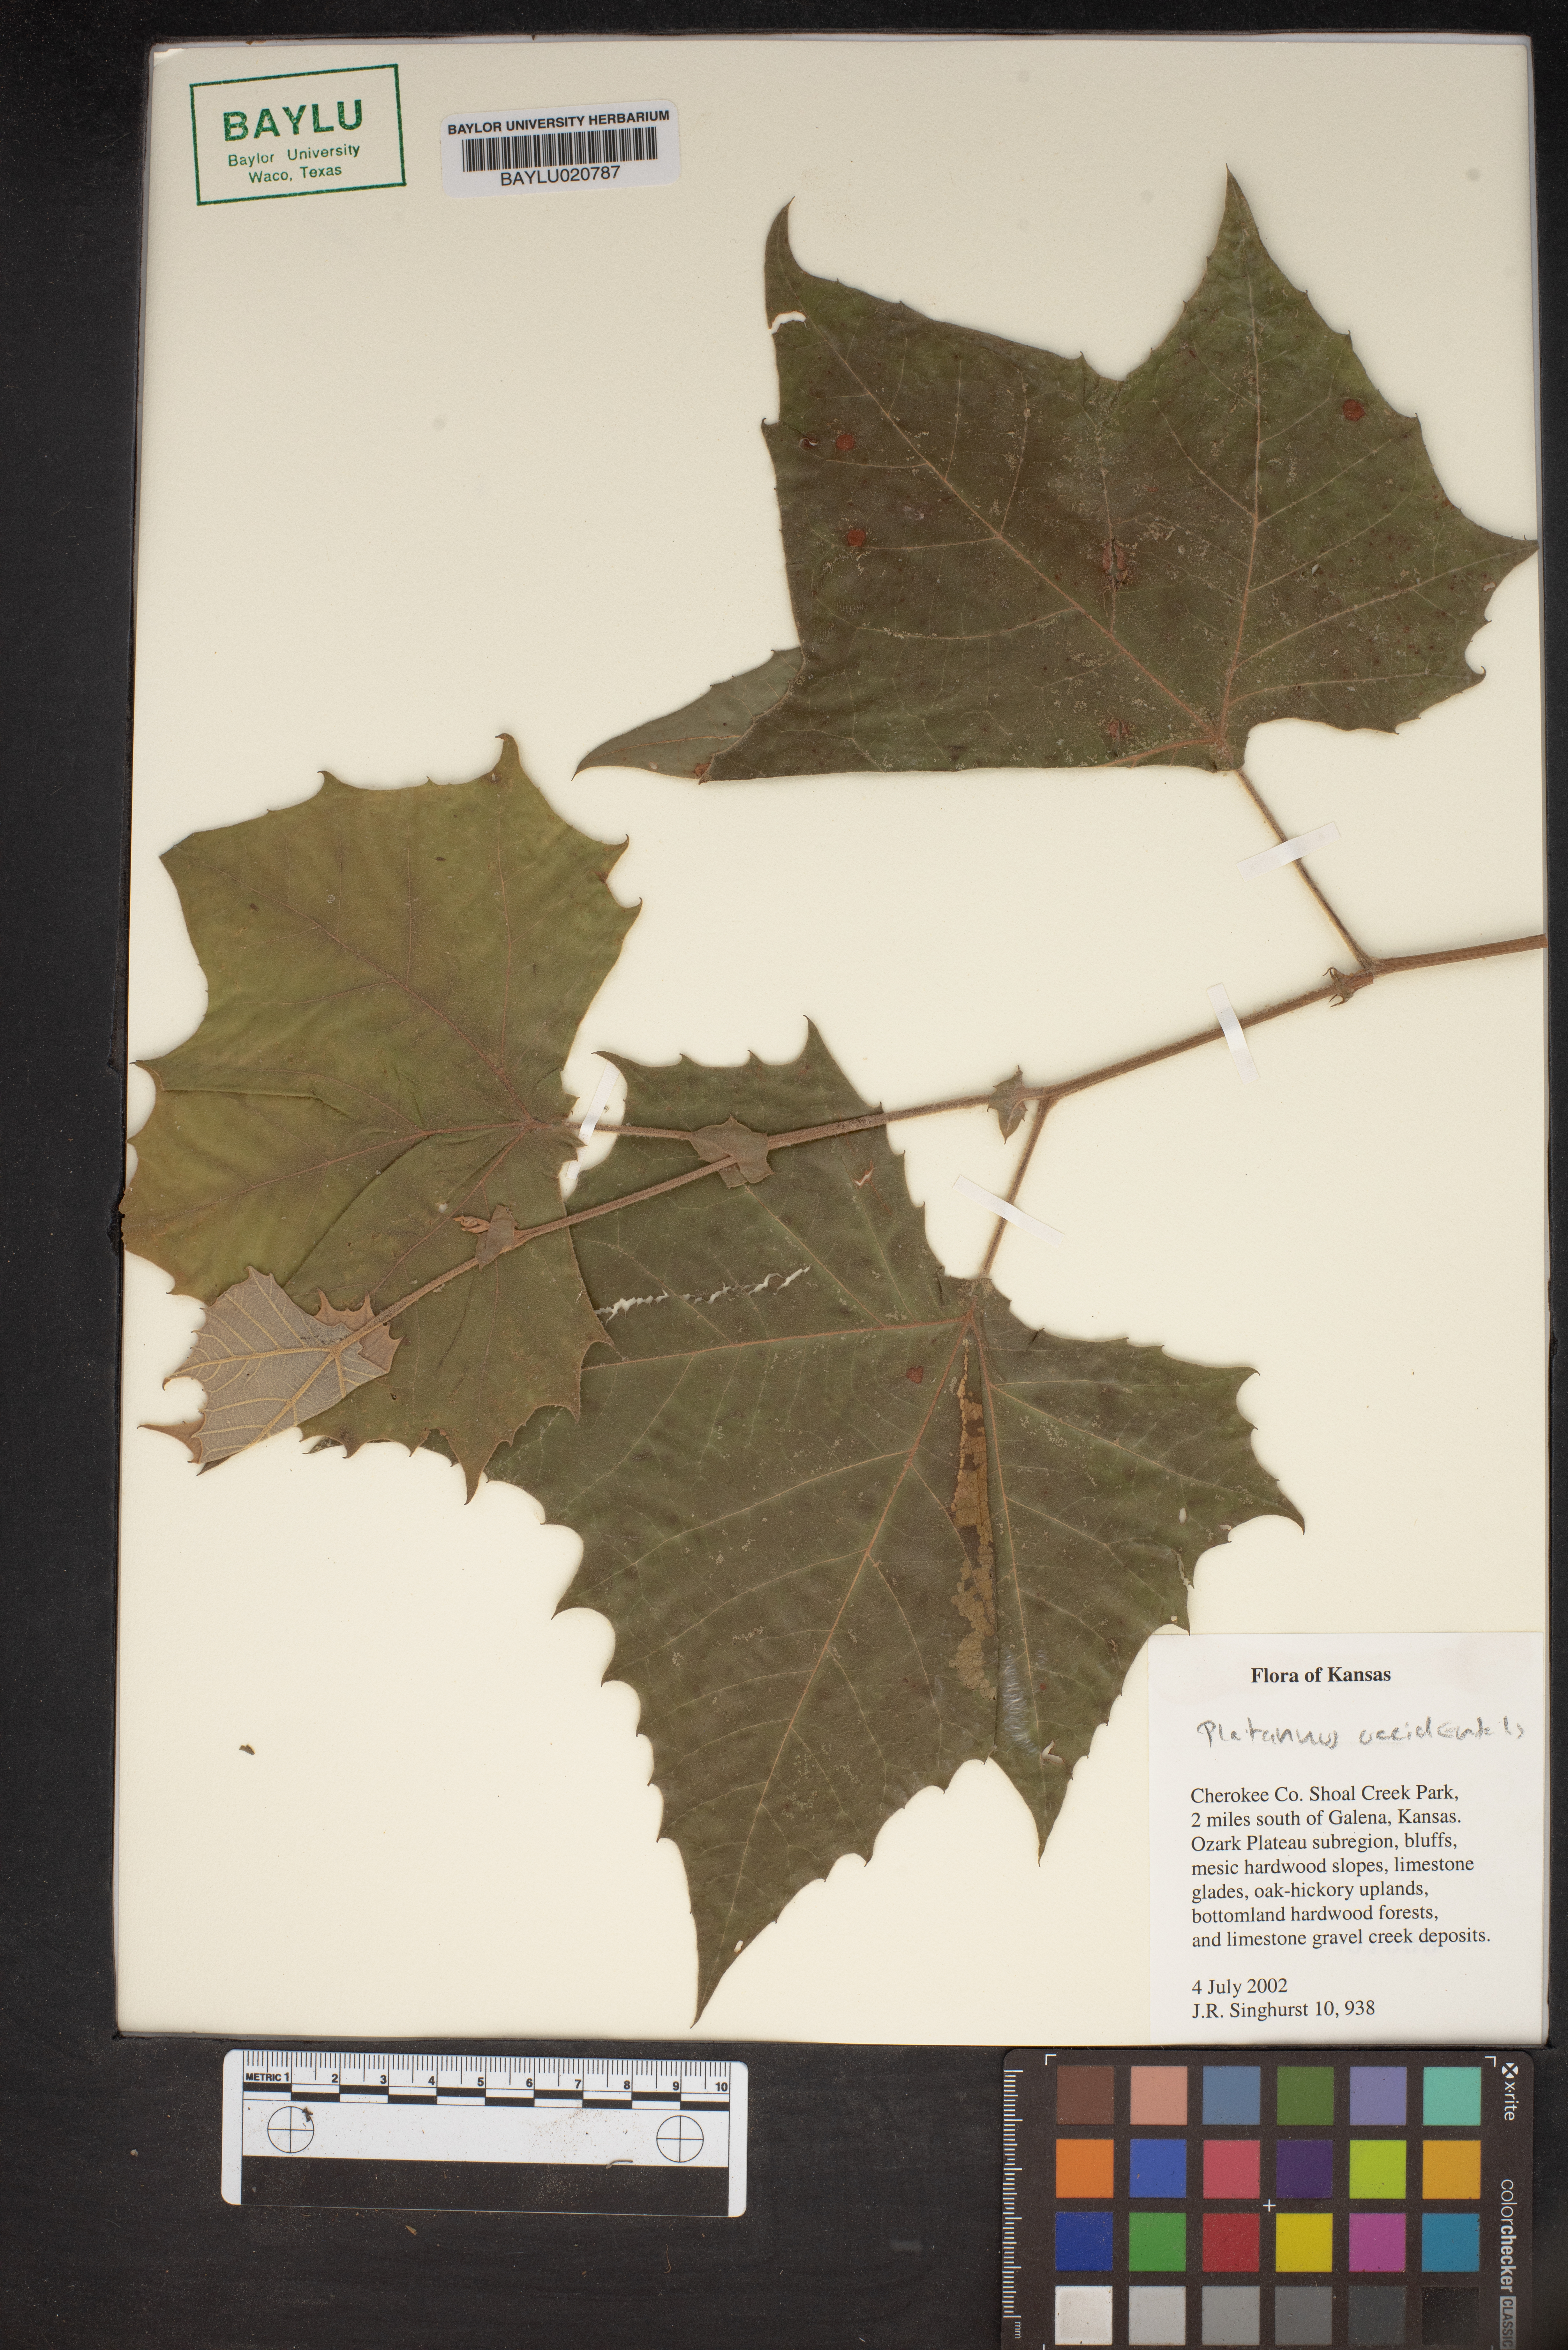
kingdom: Plantae
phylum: Tracheophyta
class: Magnoliopsida
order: Proteales
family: Platanaceae
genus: Platanus
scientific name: Platanus occidentalis
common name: American sycamore
